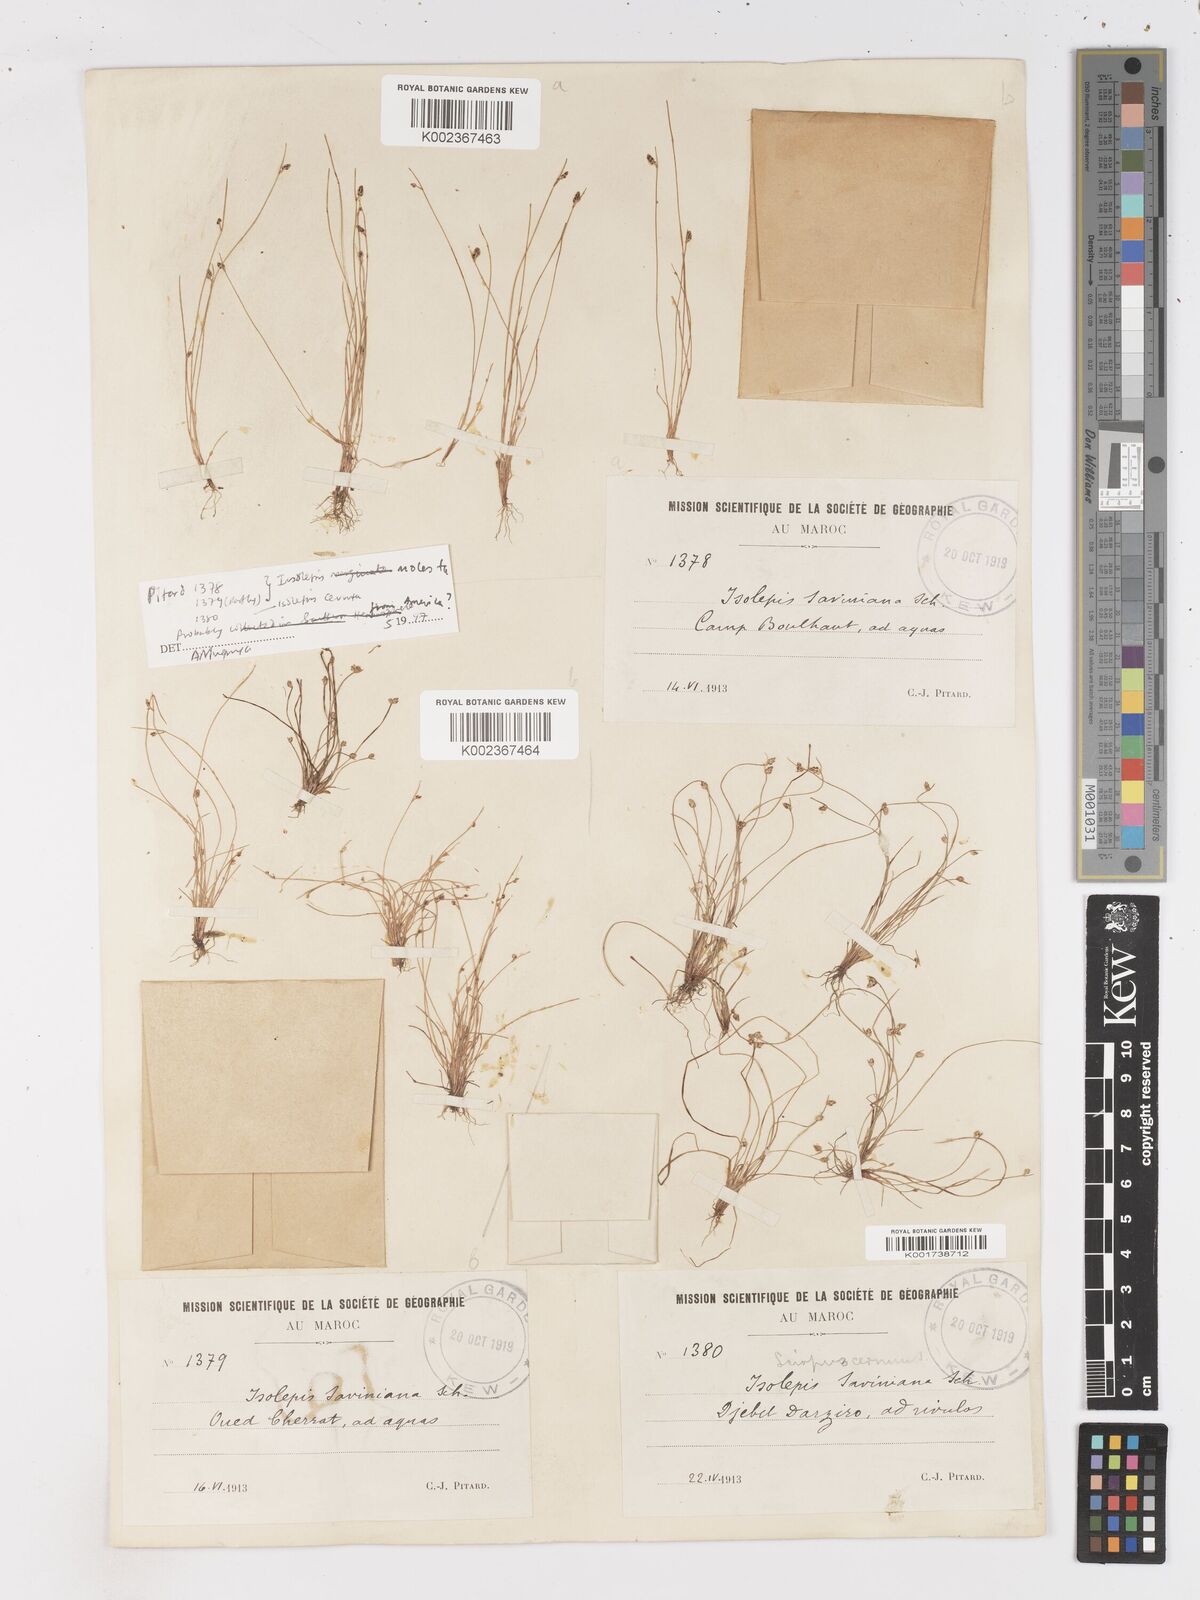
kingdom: Plantae
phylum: Tracheophyta
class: Liliopsida
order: Poales
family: Cyperaceae
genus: Isolepis
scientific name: Isolepis cernua
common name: Slender club-rush
